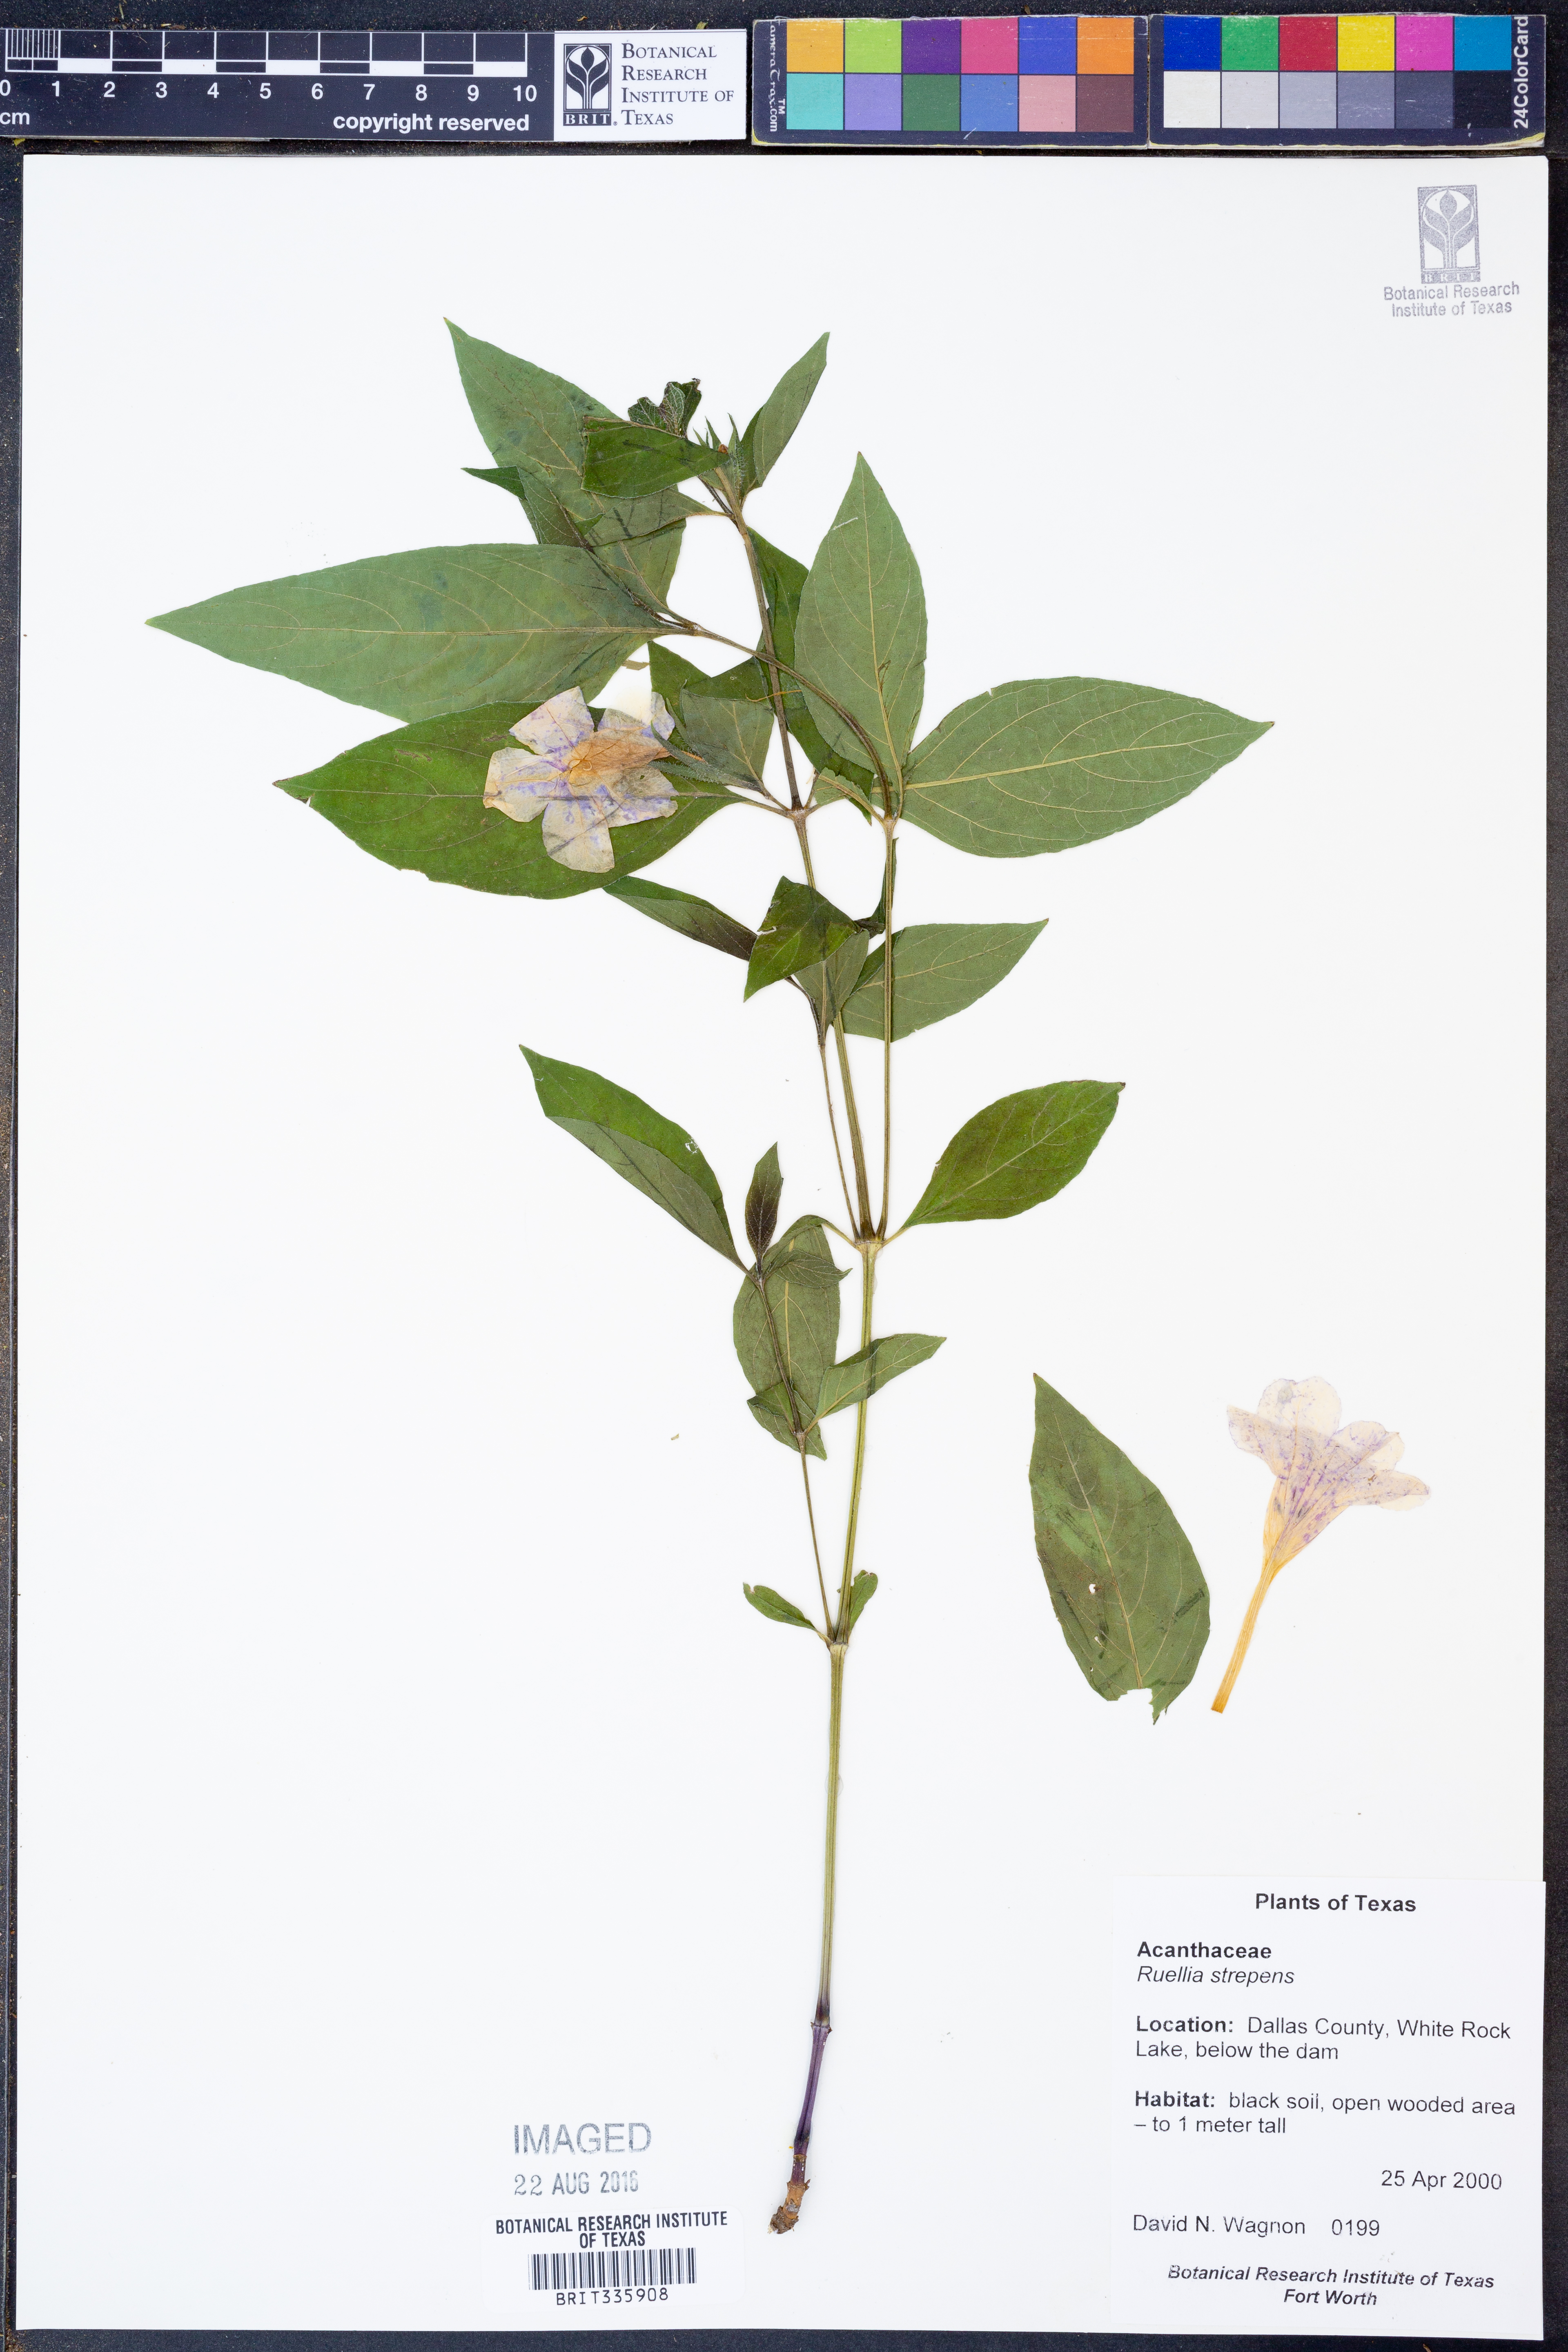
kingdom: Plantae
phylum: Tracheophyta
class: Magnoliopsida
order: Lamiales
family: Acanthaceae
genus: Ruellia
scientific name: Ruellia strepens
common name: Limestone wild petunia
